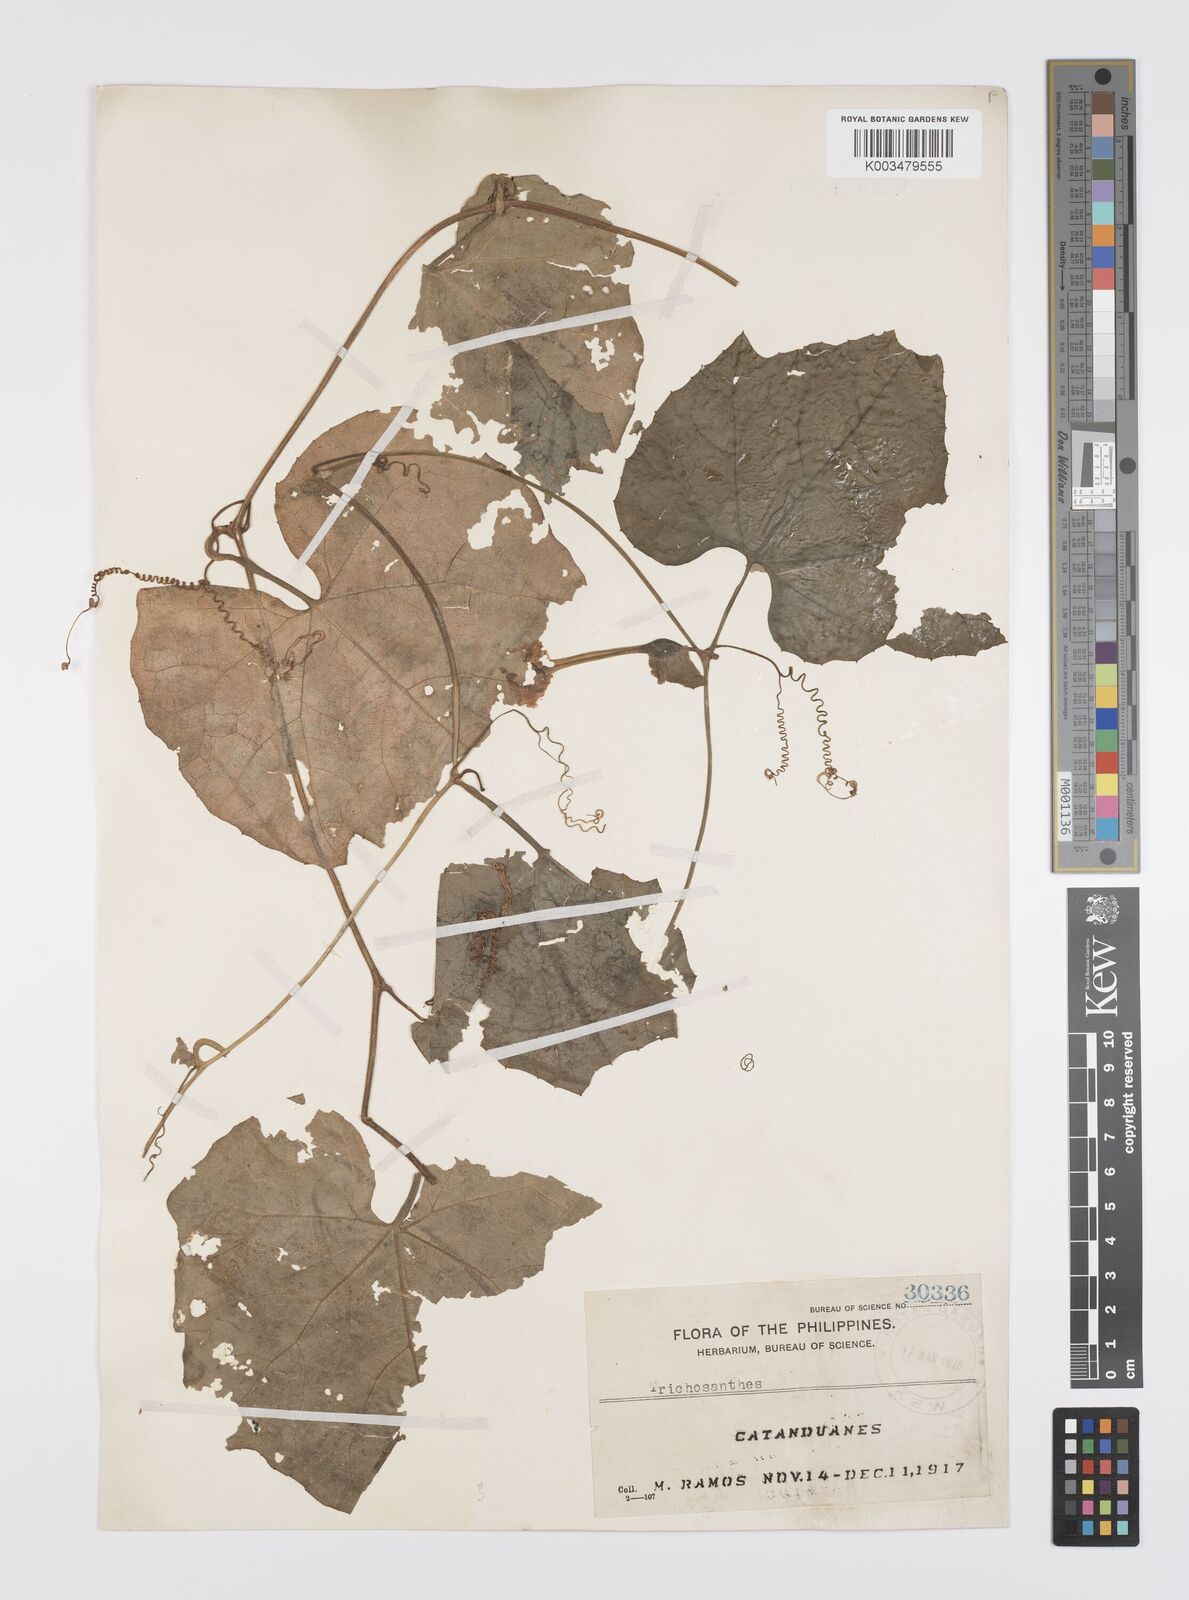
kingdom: Plantae
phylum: Tracheophyta
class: Magnoliopsida
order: Cucurbitales
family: Cucurbitaceae
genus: Trichosanthes
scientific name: Trichosanthes ovigera
